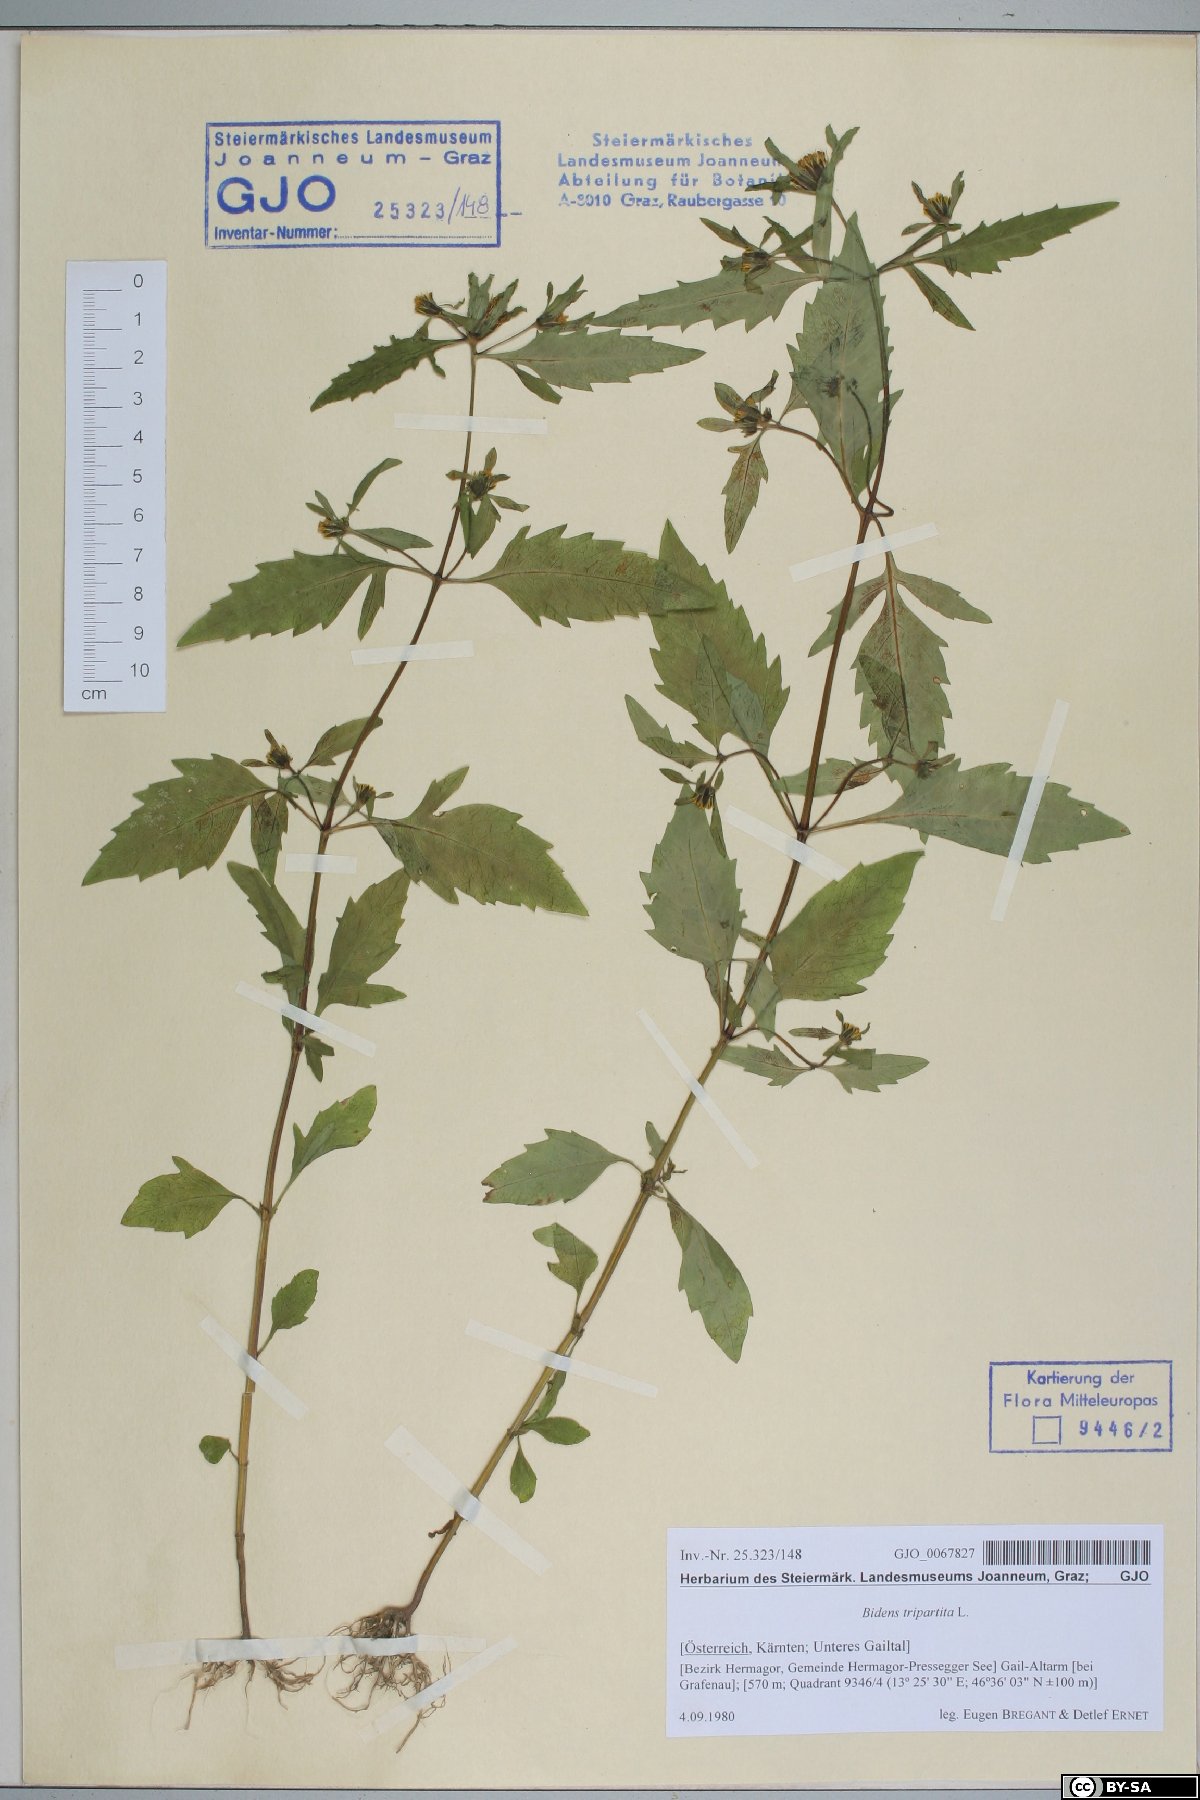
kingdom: Plantae
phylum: Tracheophyta
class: Magnoliopsida
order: Asterales
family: Asteraceae
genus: Bidens
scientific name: Bidens tripartita
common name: Trifid bur-marigold
